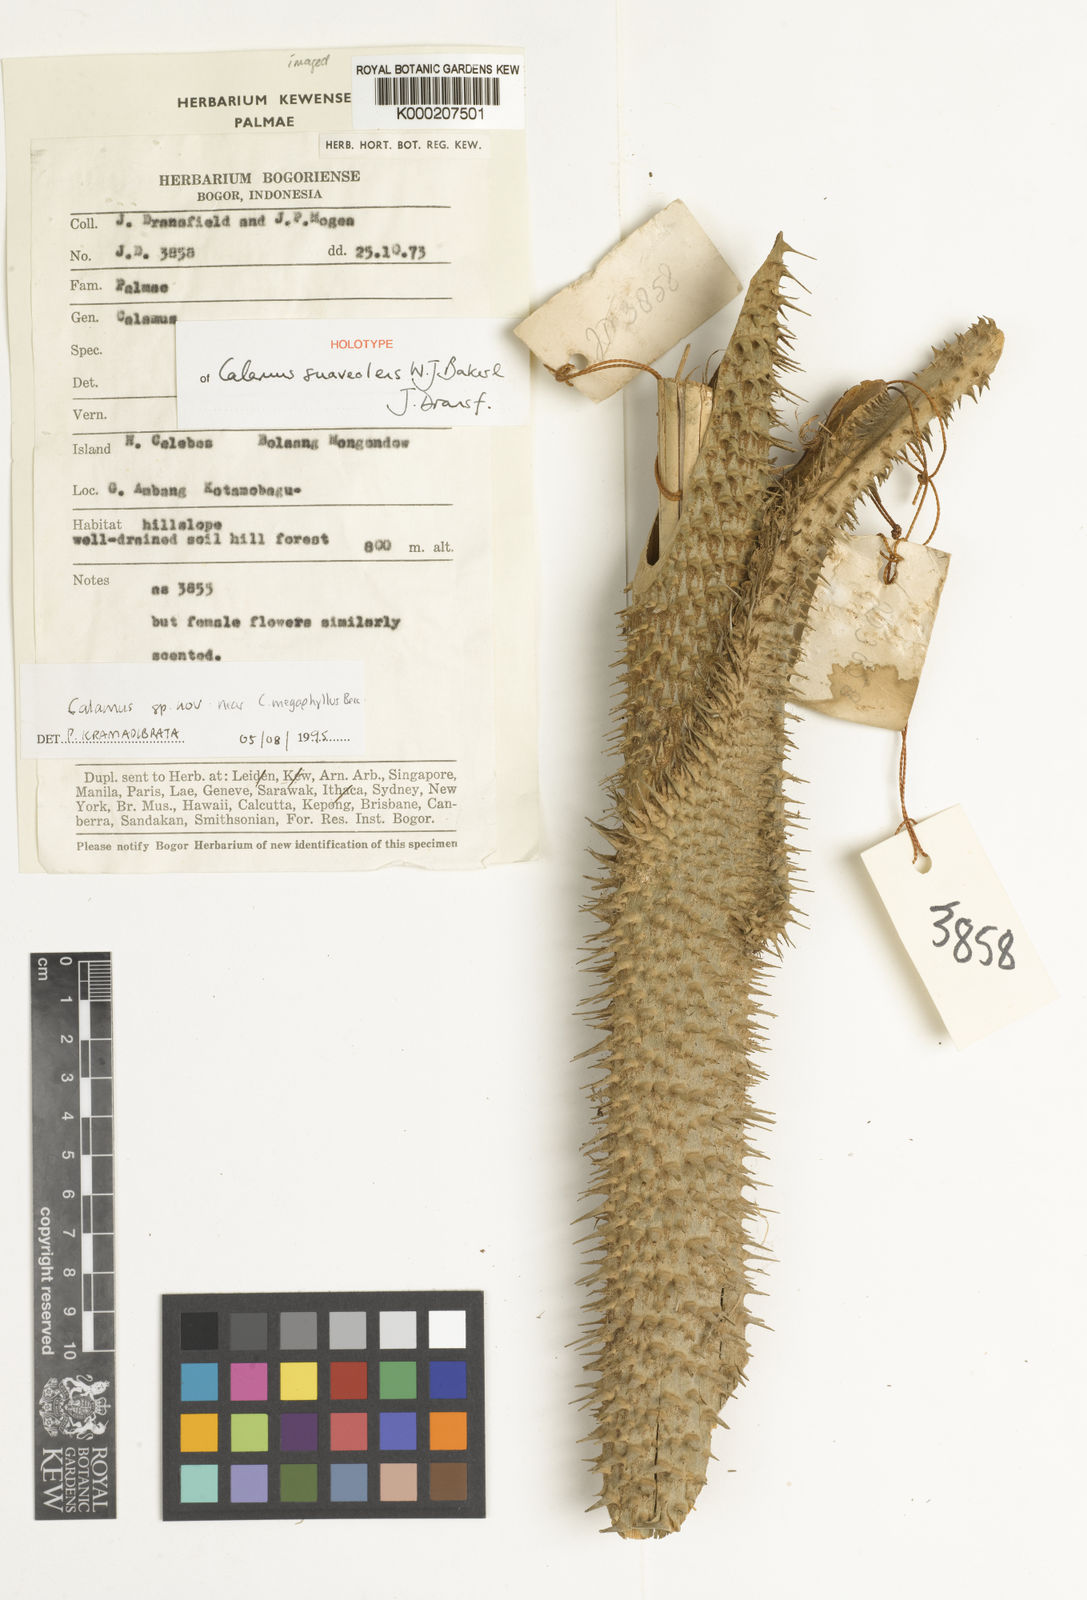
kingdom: Plantae
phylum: Tracheophyta
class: Liliopsida
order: Arecales
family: Arecaceae
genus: Calamus
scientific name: Calamus suaveolens
